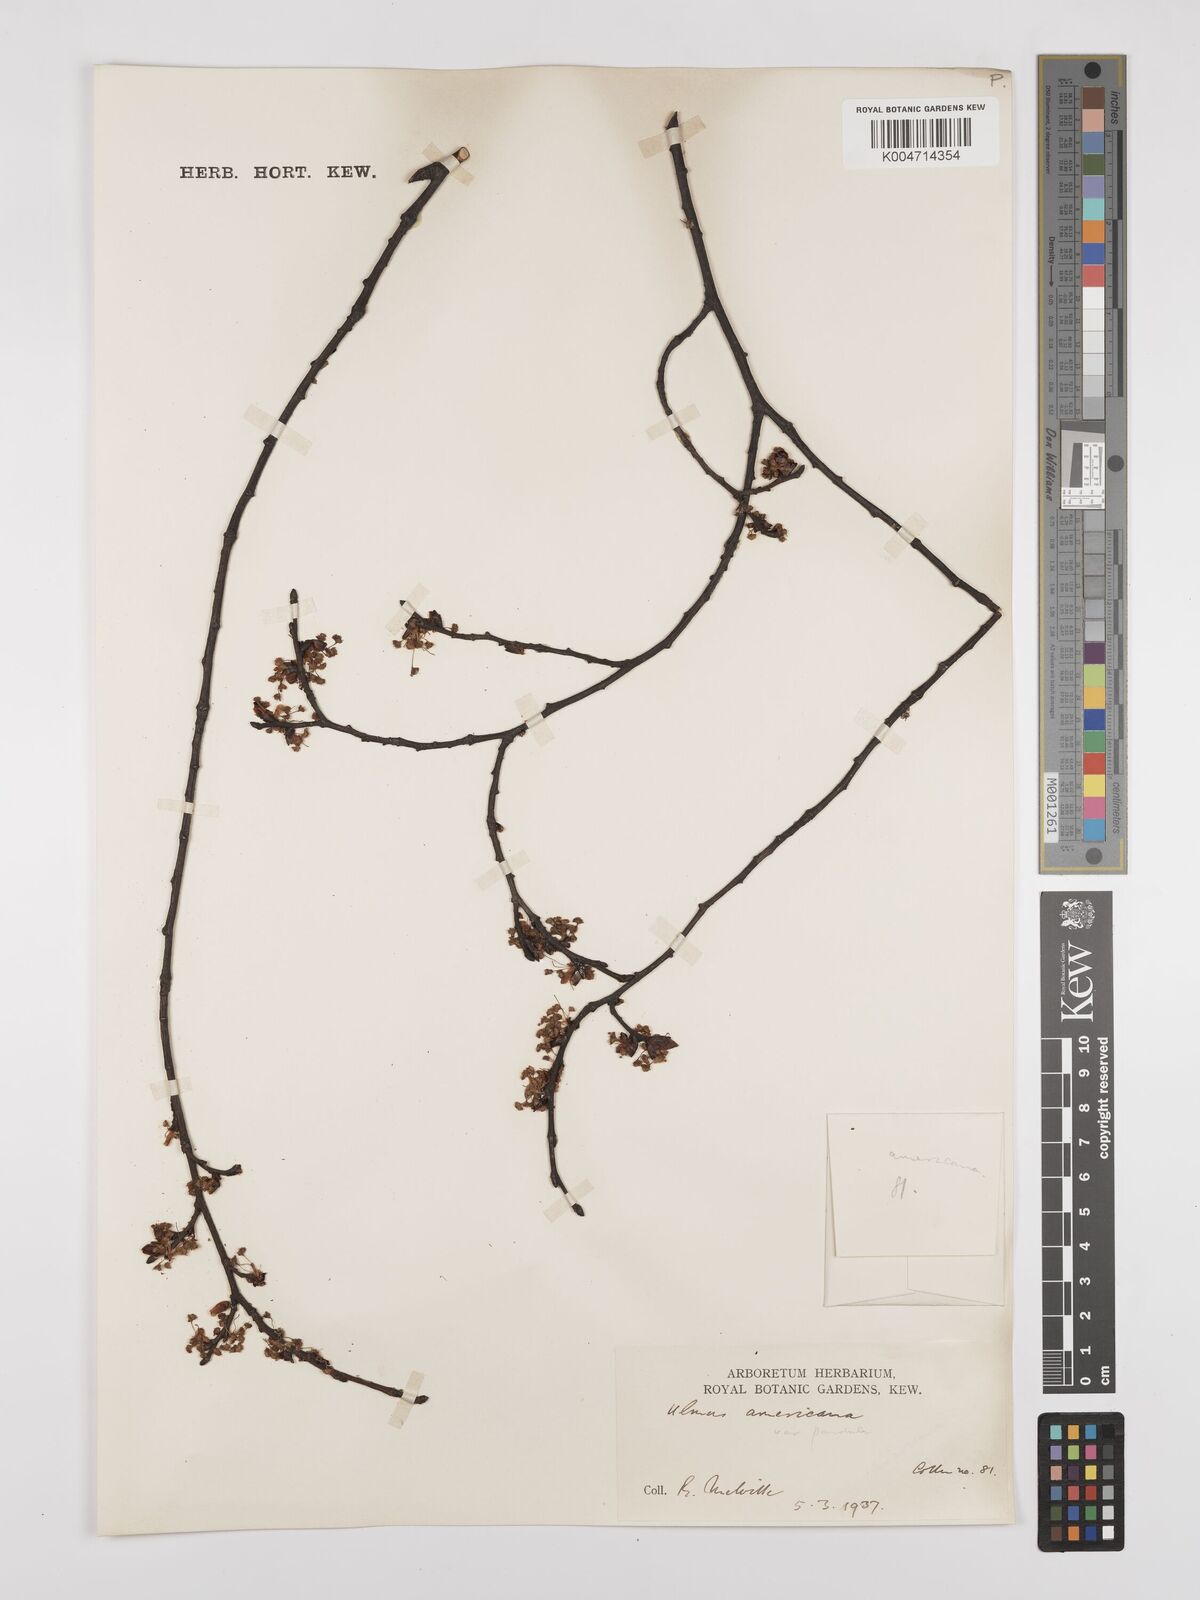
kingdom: Plantae
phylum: Tracheophyta
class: Magnoliopsida
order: Rosales
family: Ulmaceae
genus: Ulmus
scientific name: Ulmus americana
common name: American elm
